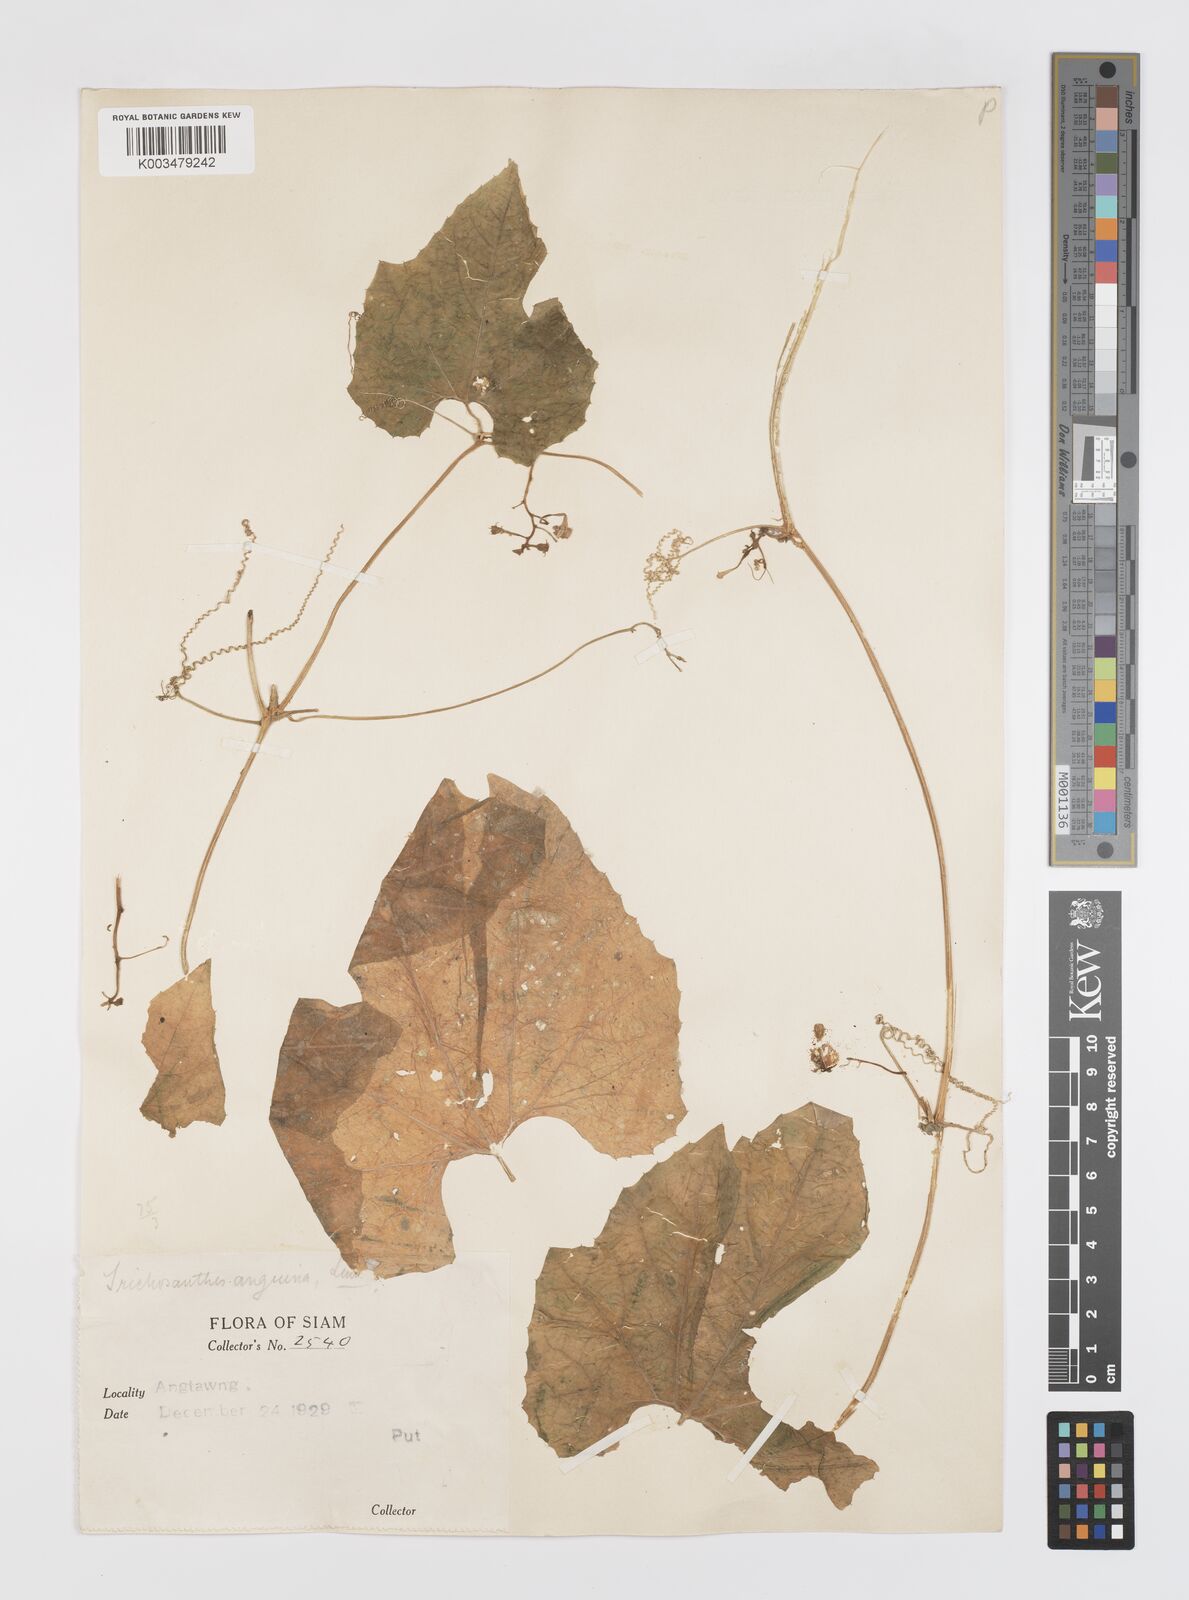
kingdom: Plantae
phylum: Tracheophyta
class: Magnoliopsida
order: Cucurbitales
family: Cucurbitaceae
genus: Trichosanthes
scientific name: Trichosanthes cucumerina
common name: Snakegourd
